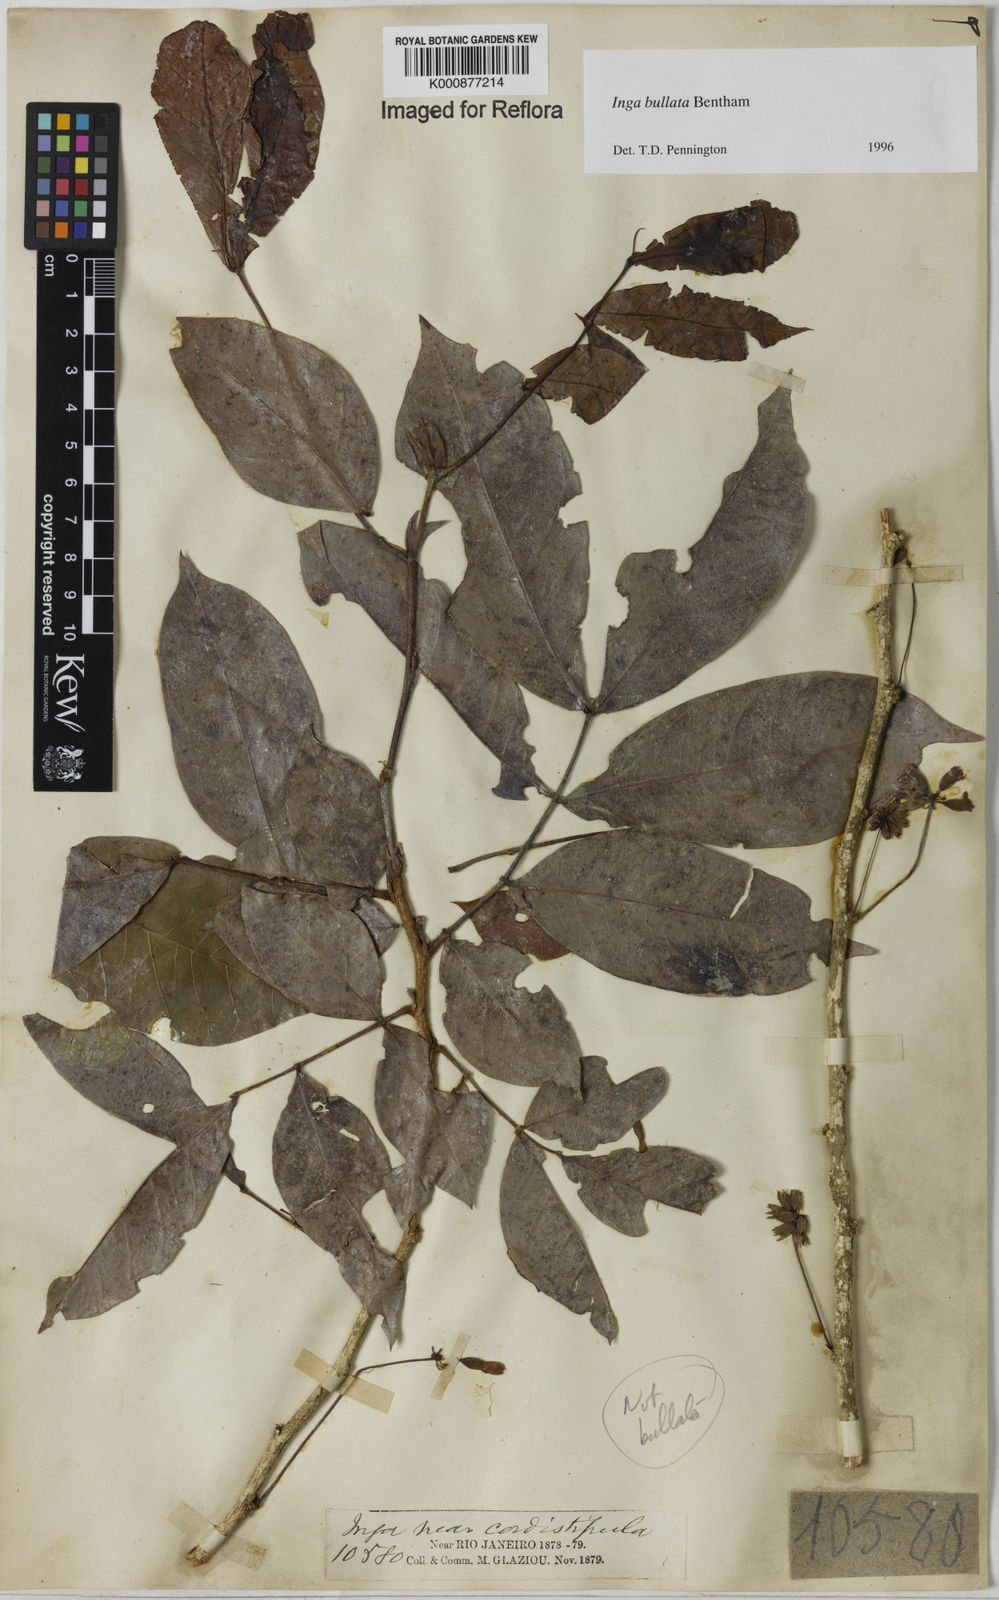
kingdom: Plantae
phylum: Tracheophyta
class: Magnoliopsida
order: Fabales
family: Fabaceae
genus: Inga
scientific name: Inga bullata
